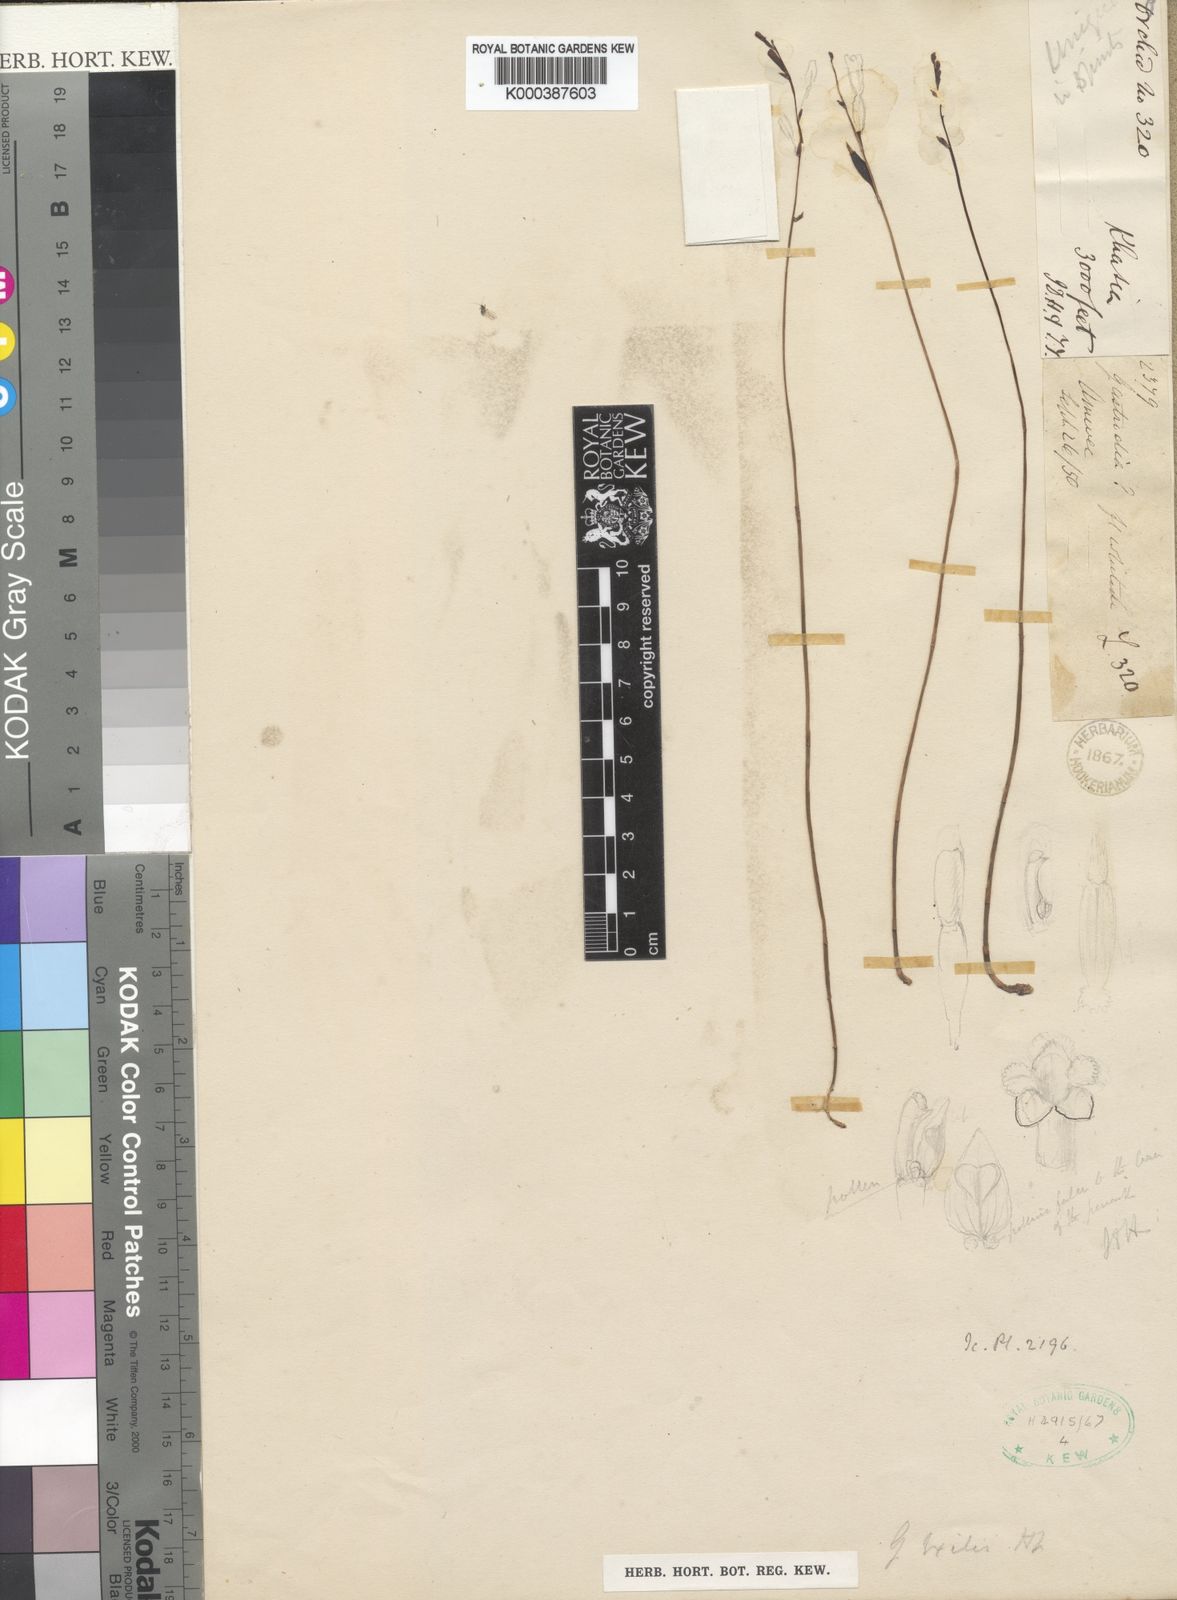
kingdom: Plantae
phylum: Tracheophyta
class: Liliopsida
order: Asparagales
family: Orchidaceae
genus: Gastrodia
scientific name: Gastrodia exilis
